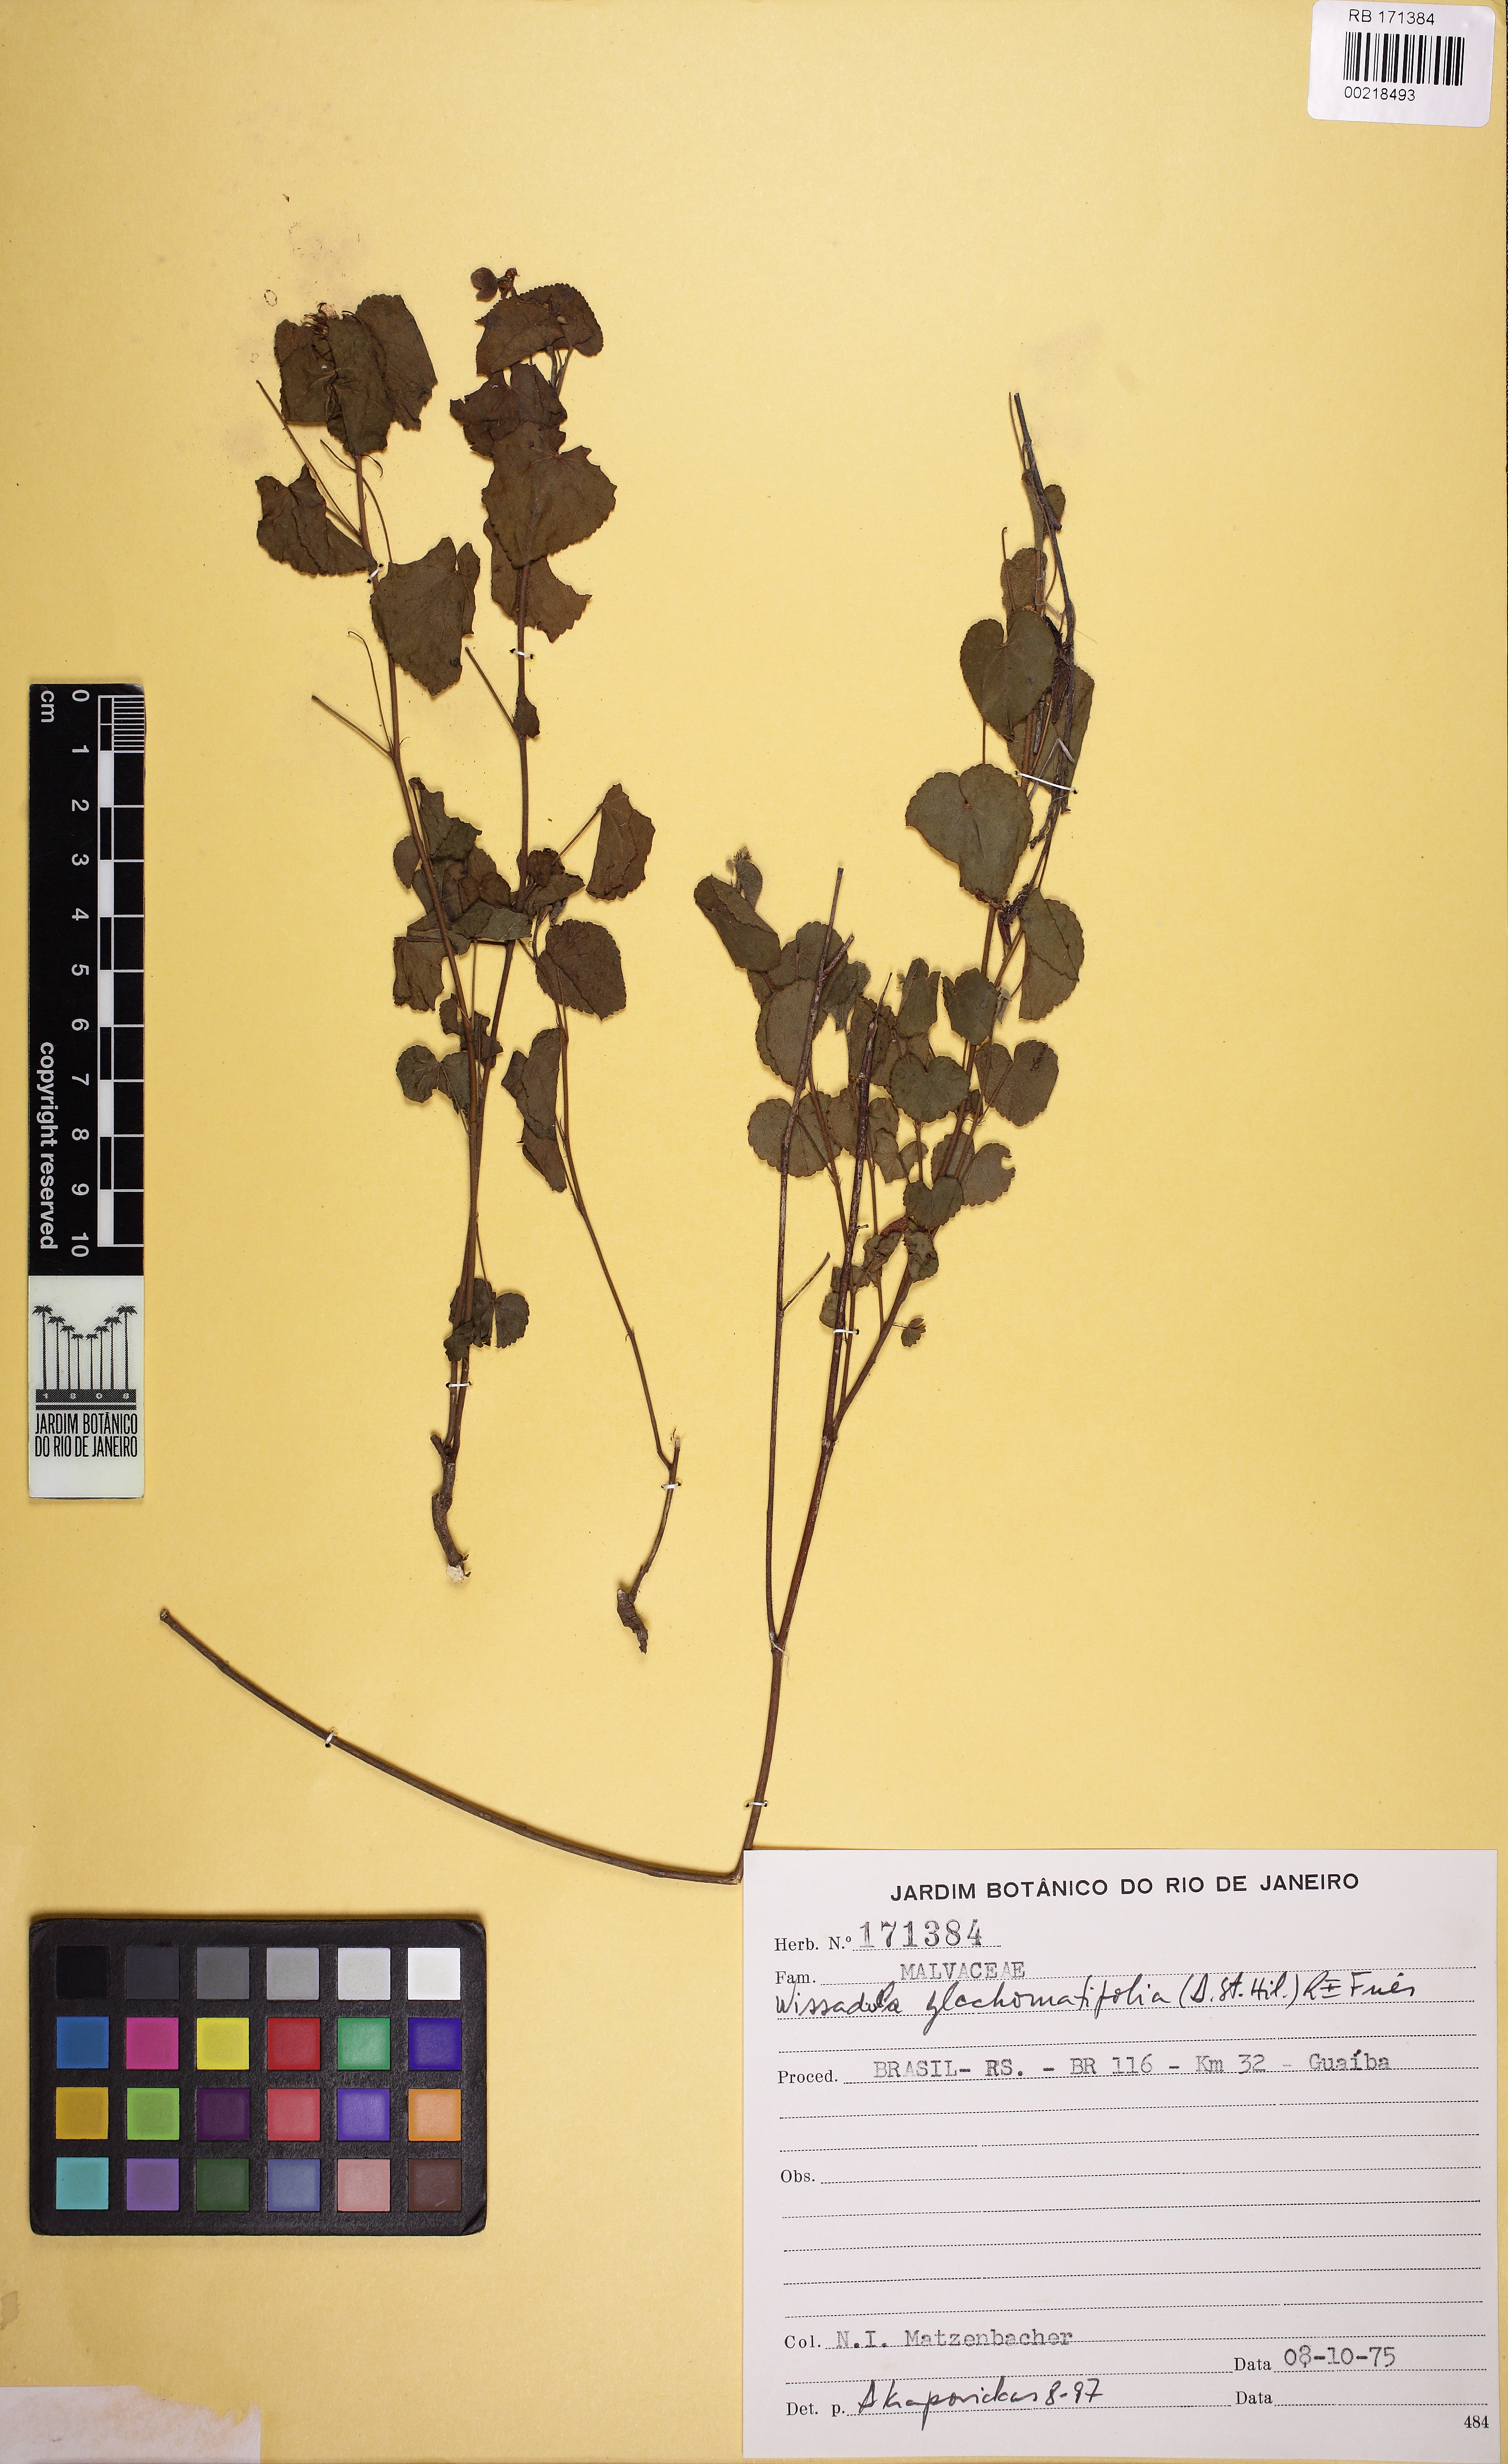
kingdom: Plantae
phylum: Tracheophyta
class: Magnoliopsida
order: Malvales
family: Malvaceae
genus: Wissadula
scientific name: Wissadula glechomifolia
